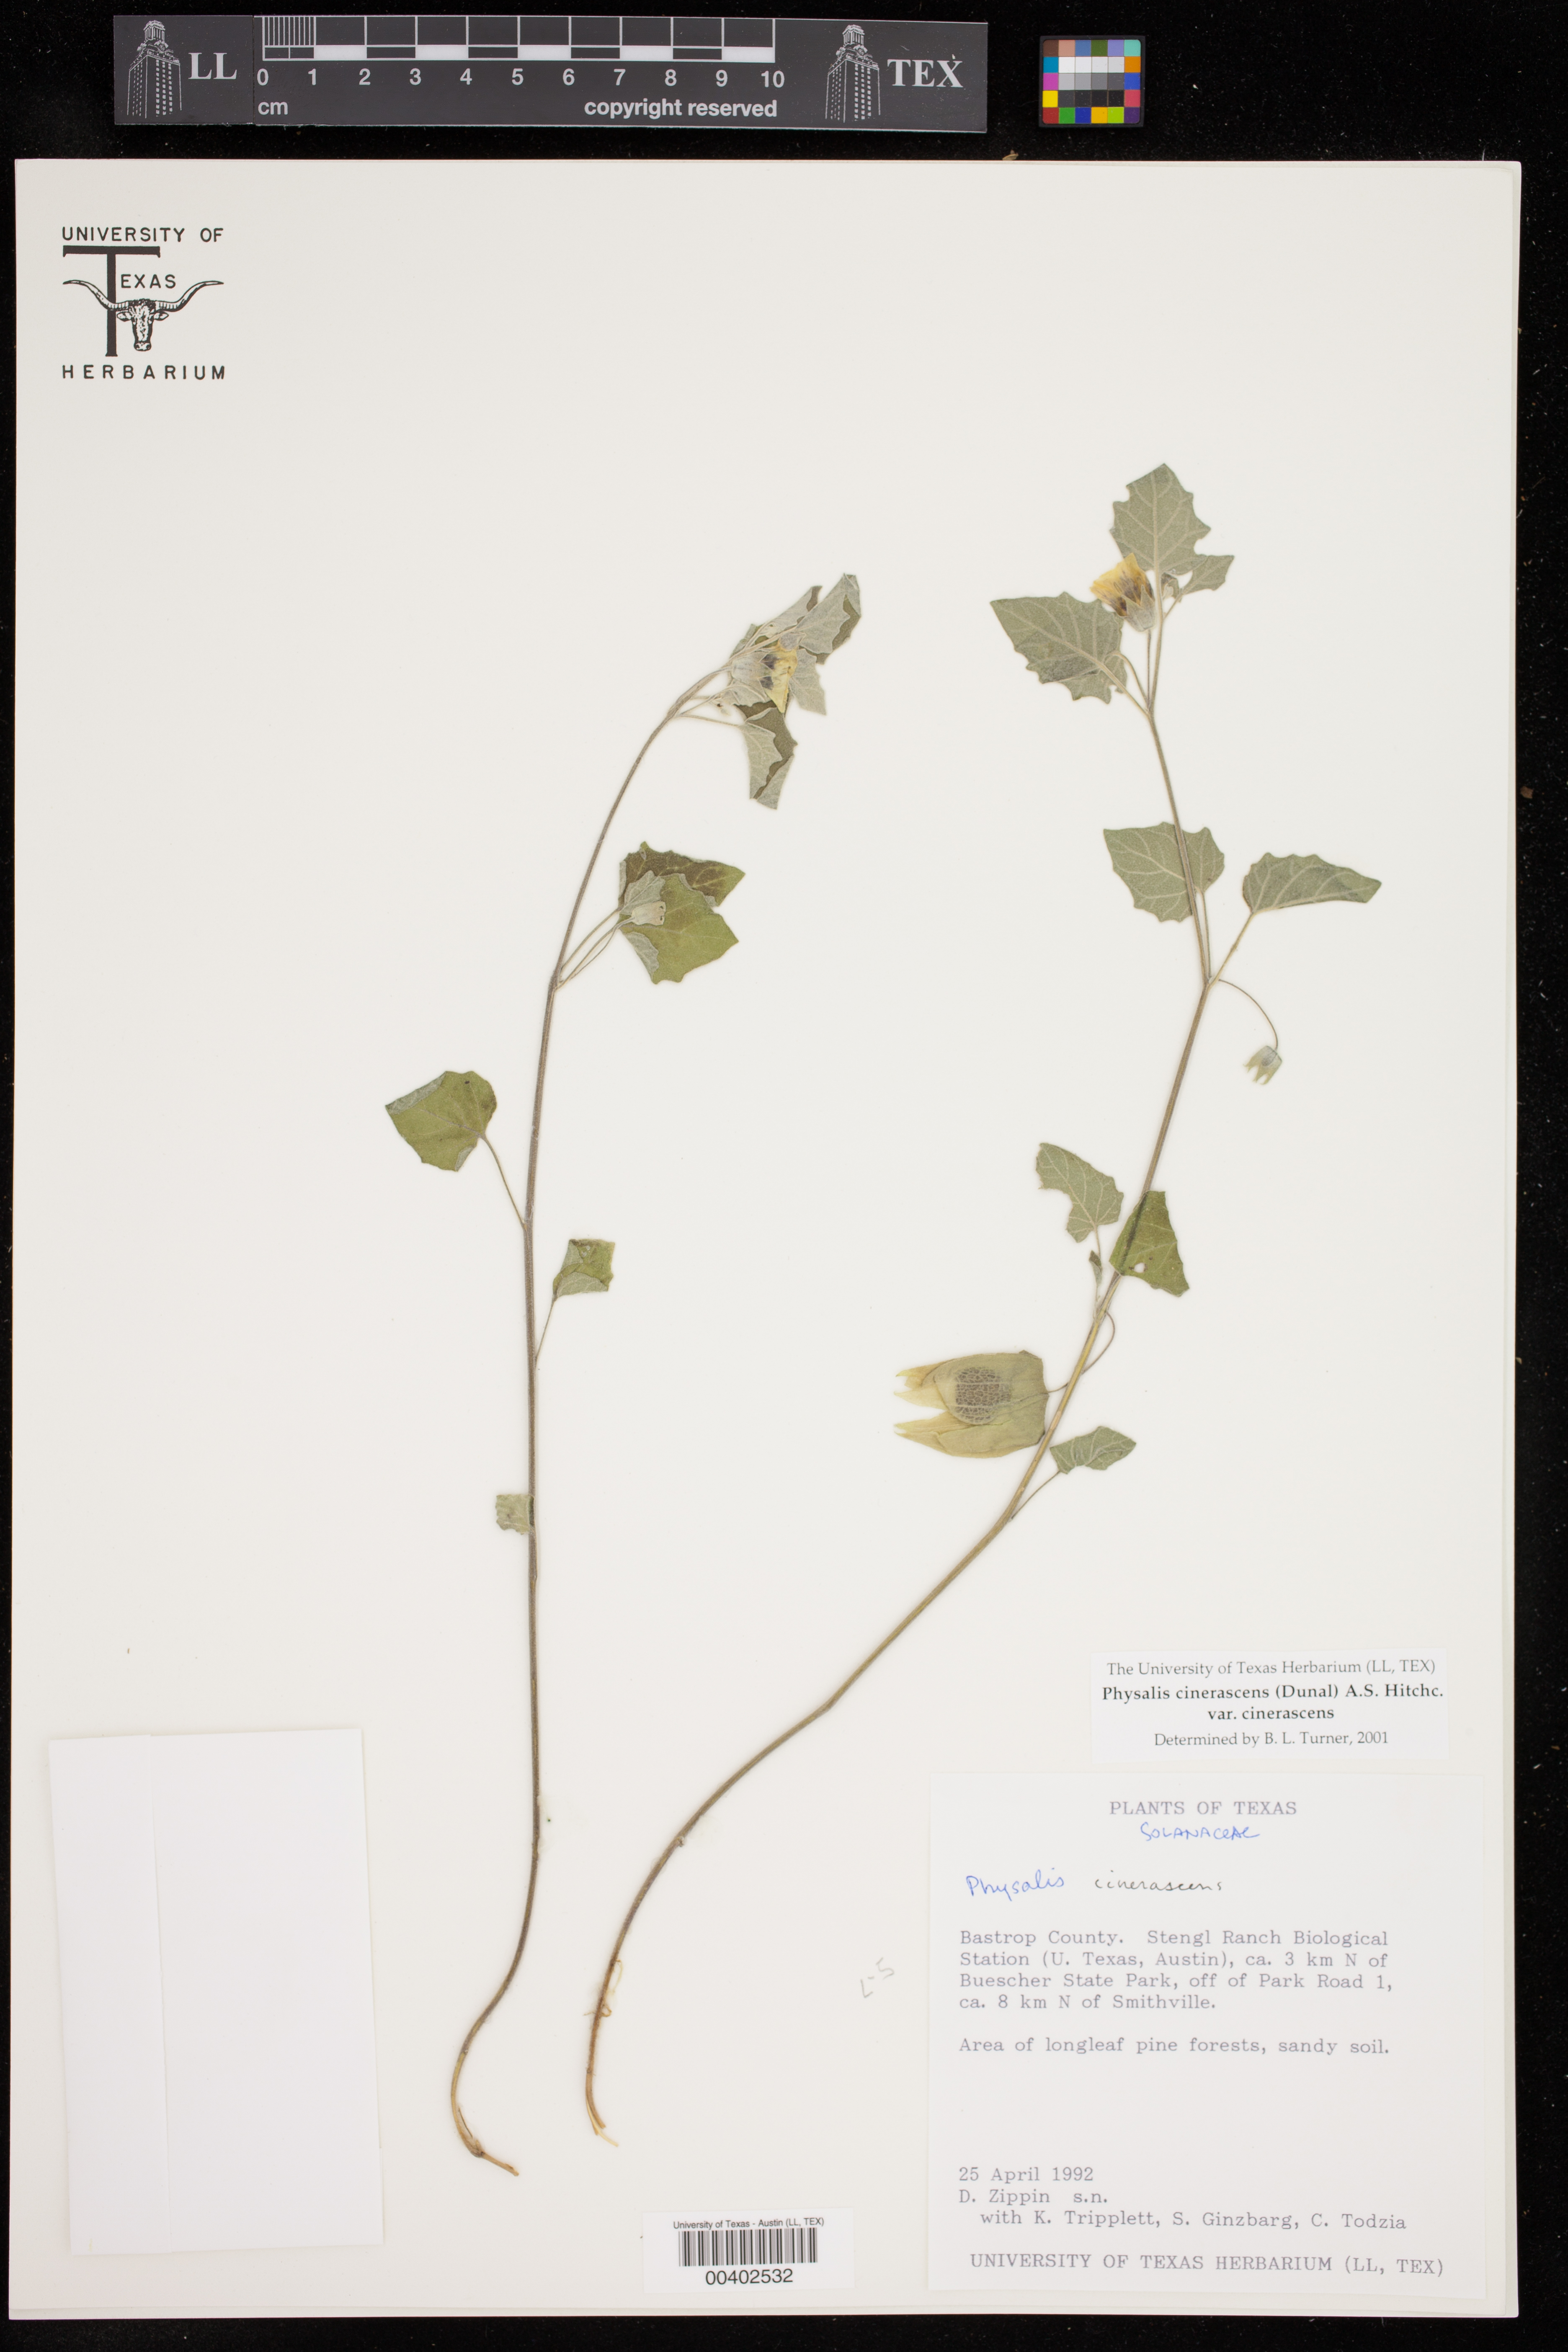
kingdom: Plantae
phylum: Tracheophyta
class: Magnoliopsida
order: Solanales
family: Solanaceae
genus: Physalis
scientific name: Physalis cinerascens
